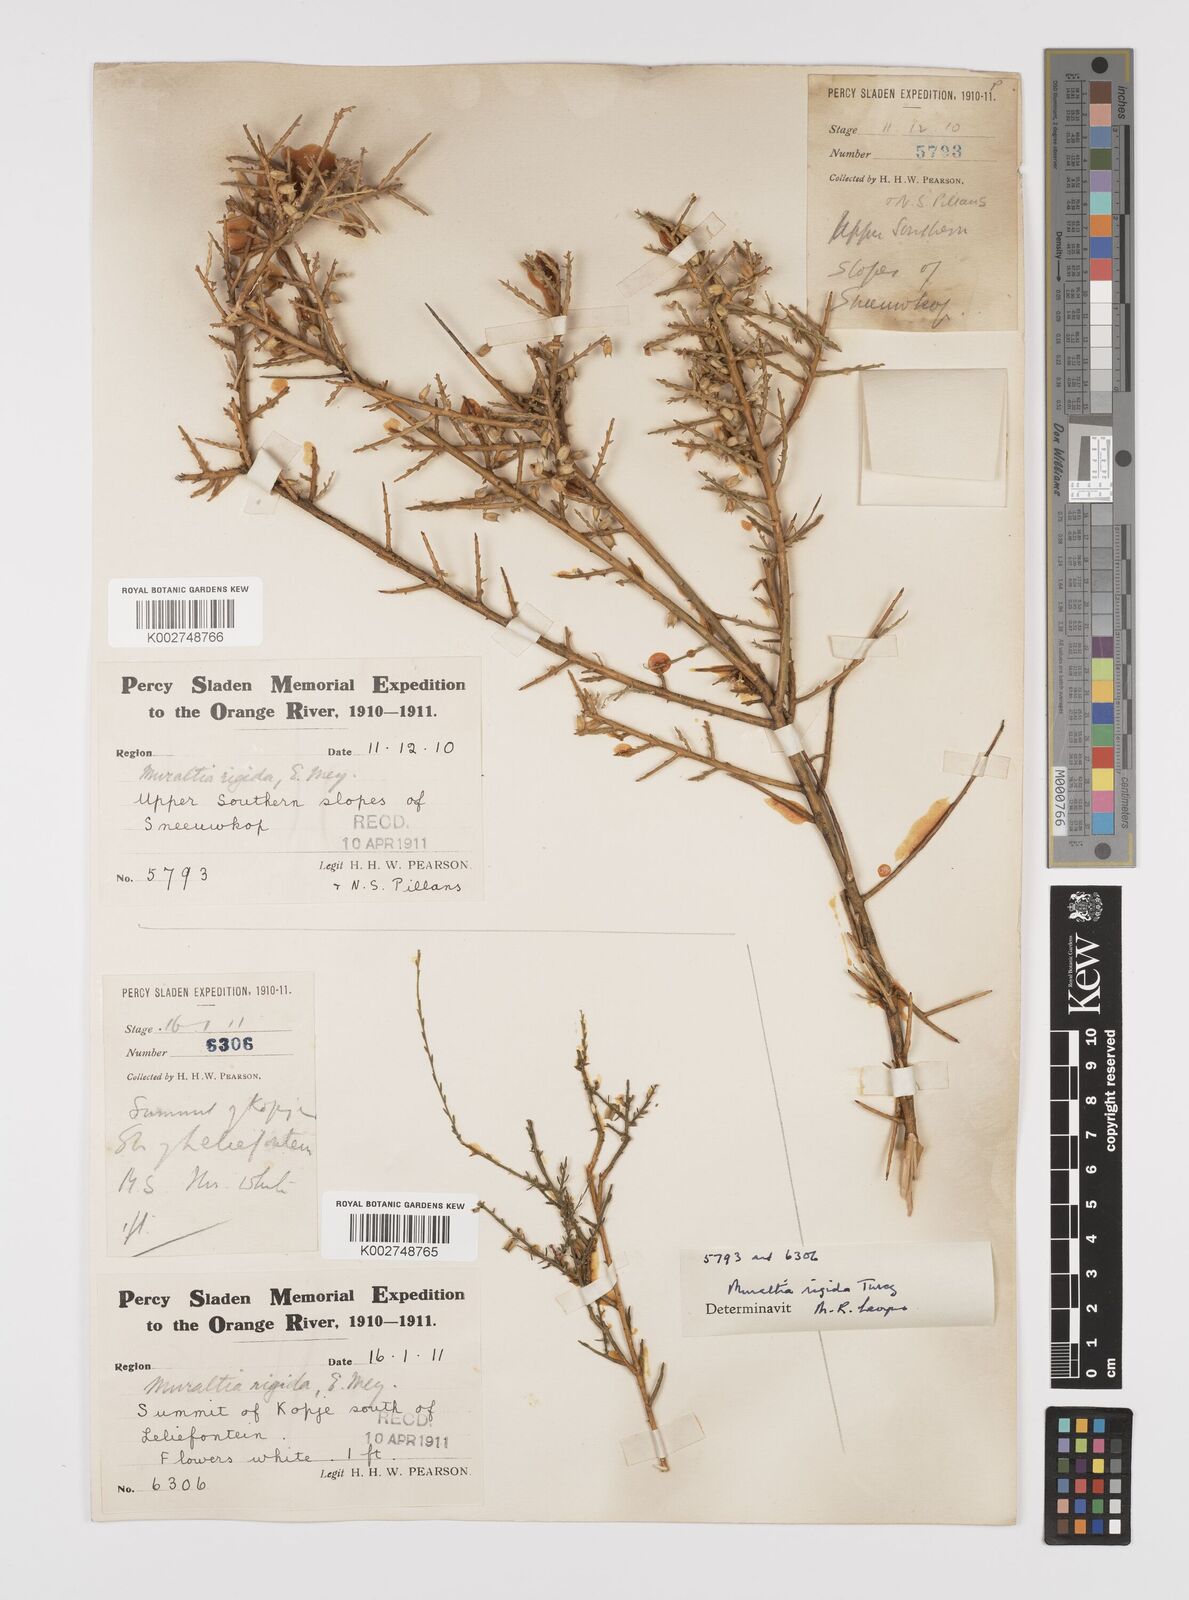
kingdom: Plantae
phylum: Tracheophyta
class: Magnoliopsida
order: Fabales
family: Polygalaceae
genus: Muraltia
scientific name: Muraltia rigida
